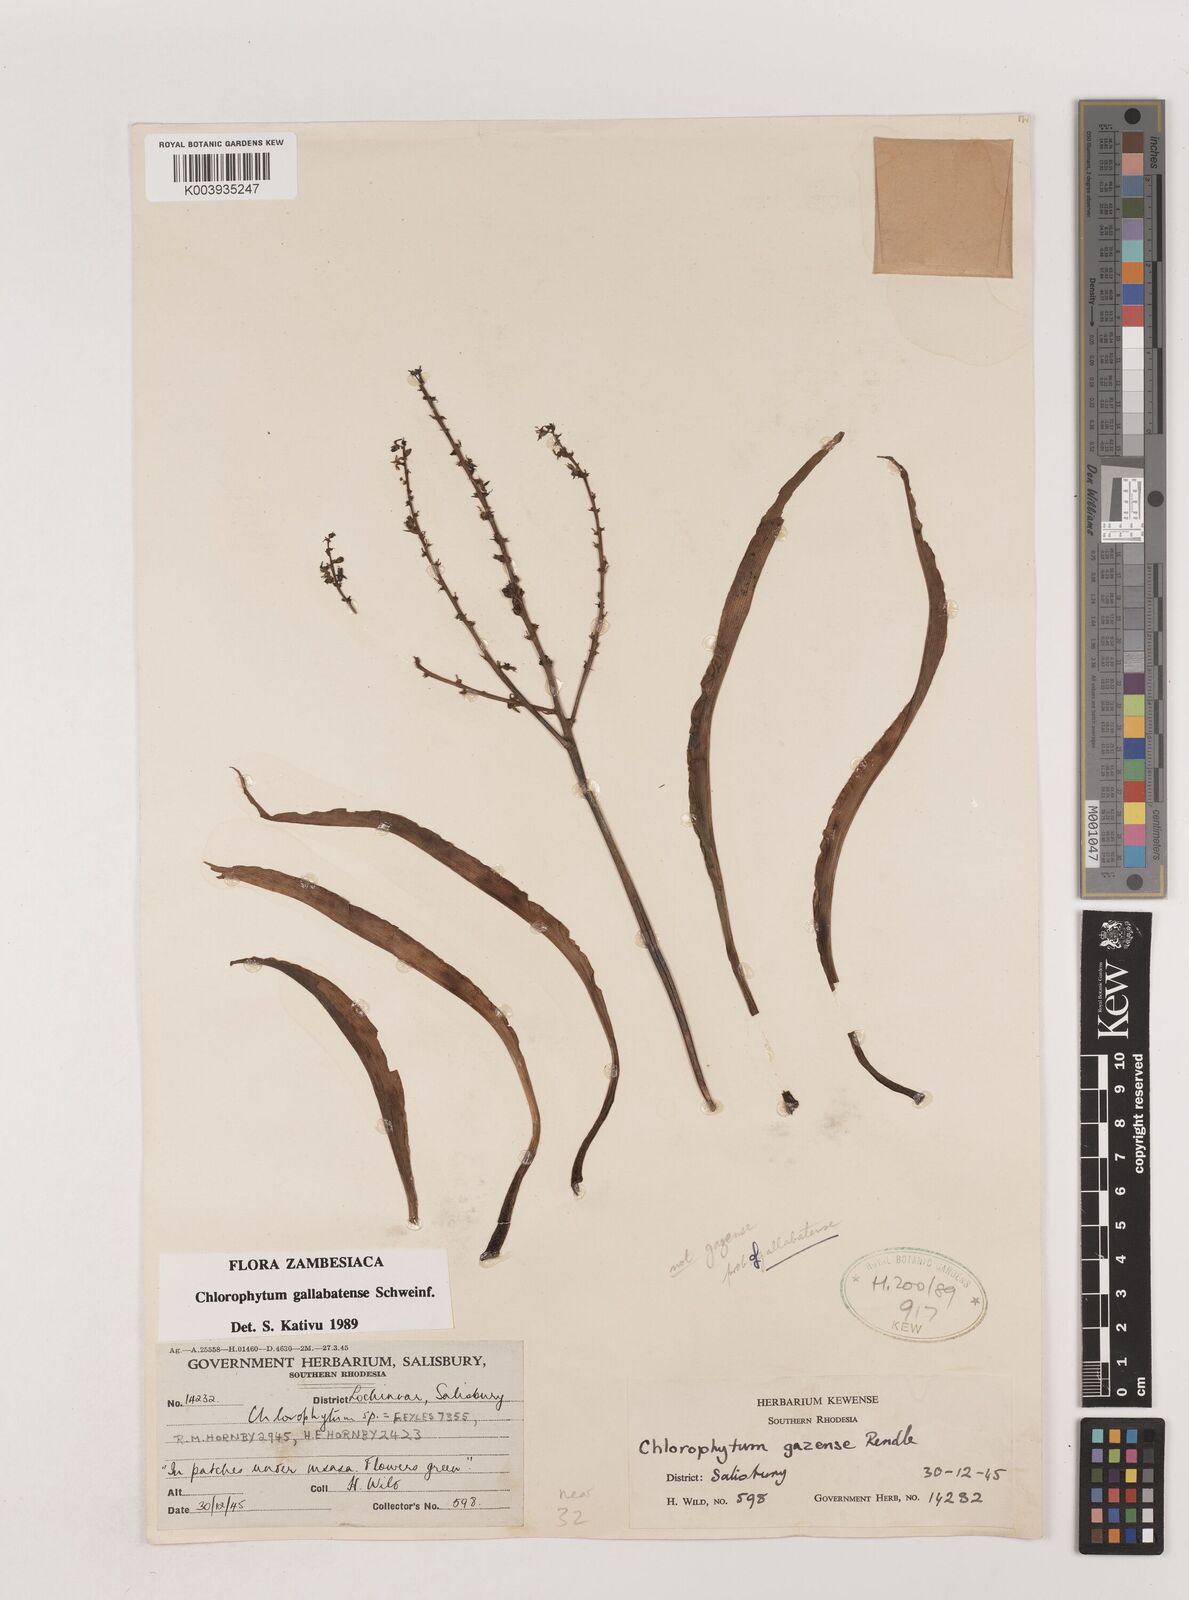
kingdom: Plantae
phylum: Tracheophyta
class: Liliopsida
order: Asparagales
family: Asparagaceae
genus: Chlorophytum
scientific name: Chlorophytum gallabatense
